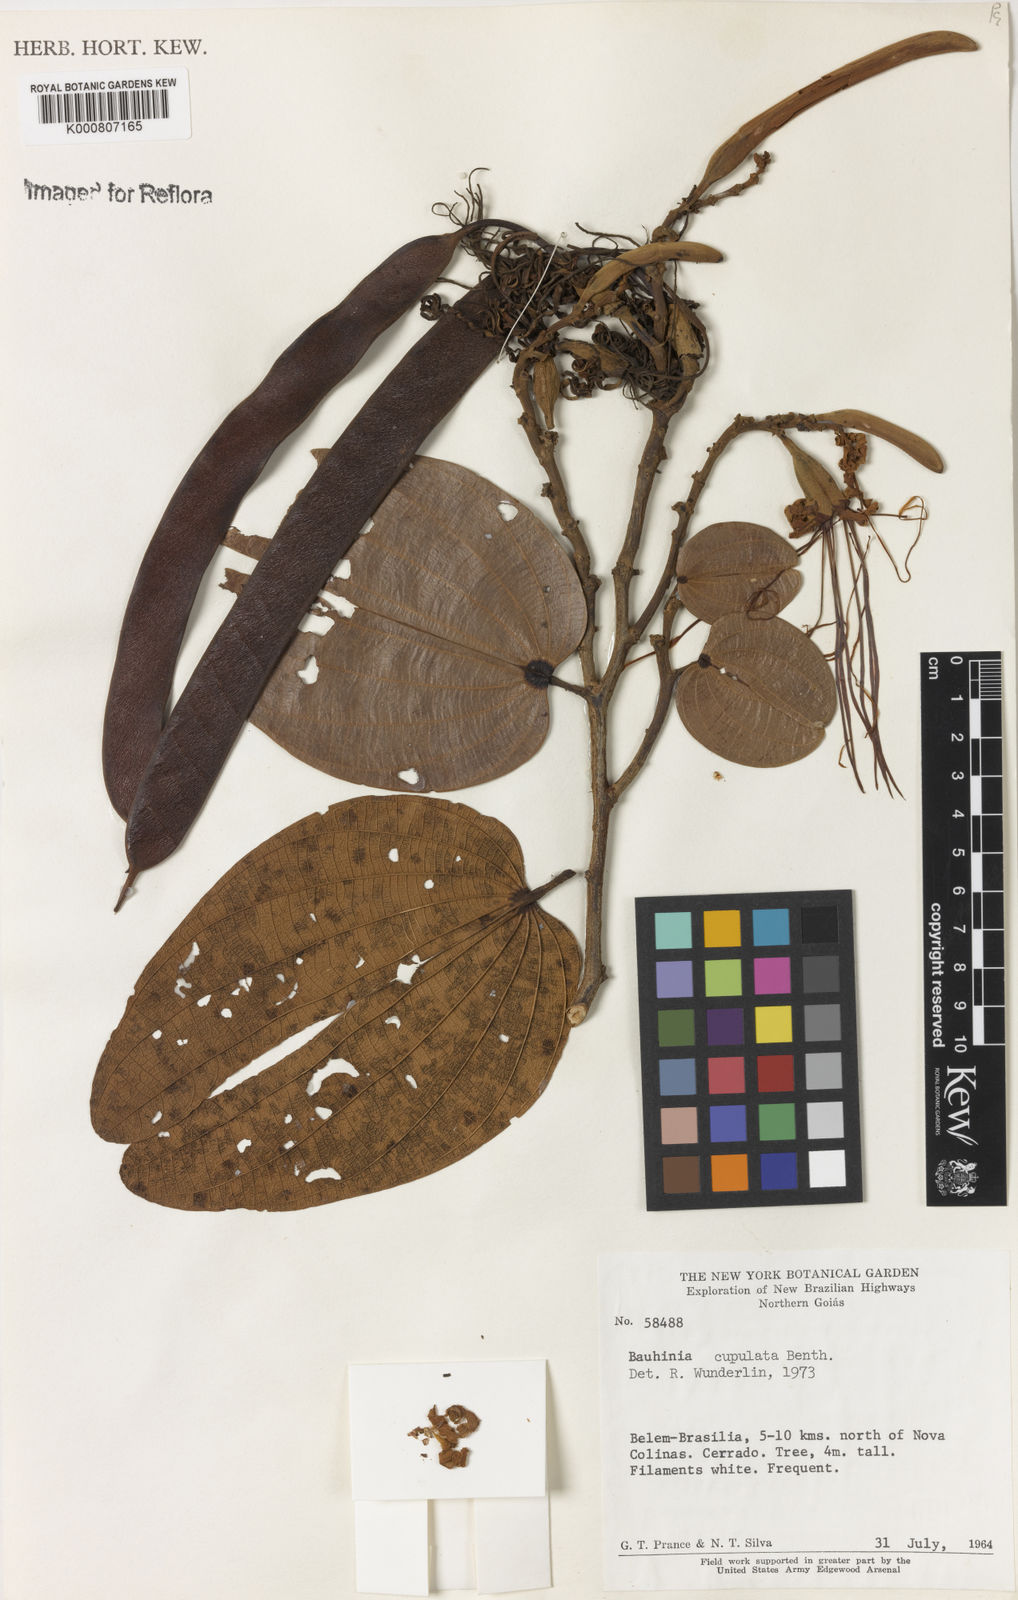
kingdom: Plantae
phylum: Tracheophyta
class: Magnoliopsida
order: Fabales
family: Fabaceae
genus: Bauhinia
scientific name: Bauhinia cupulata
